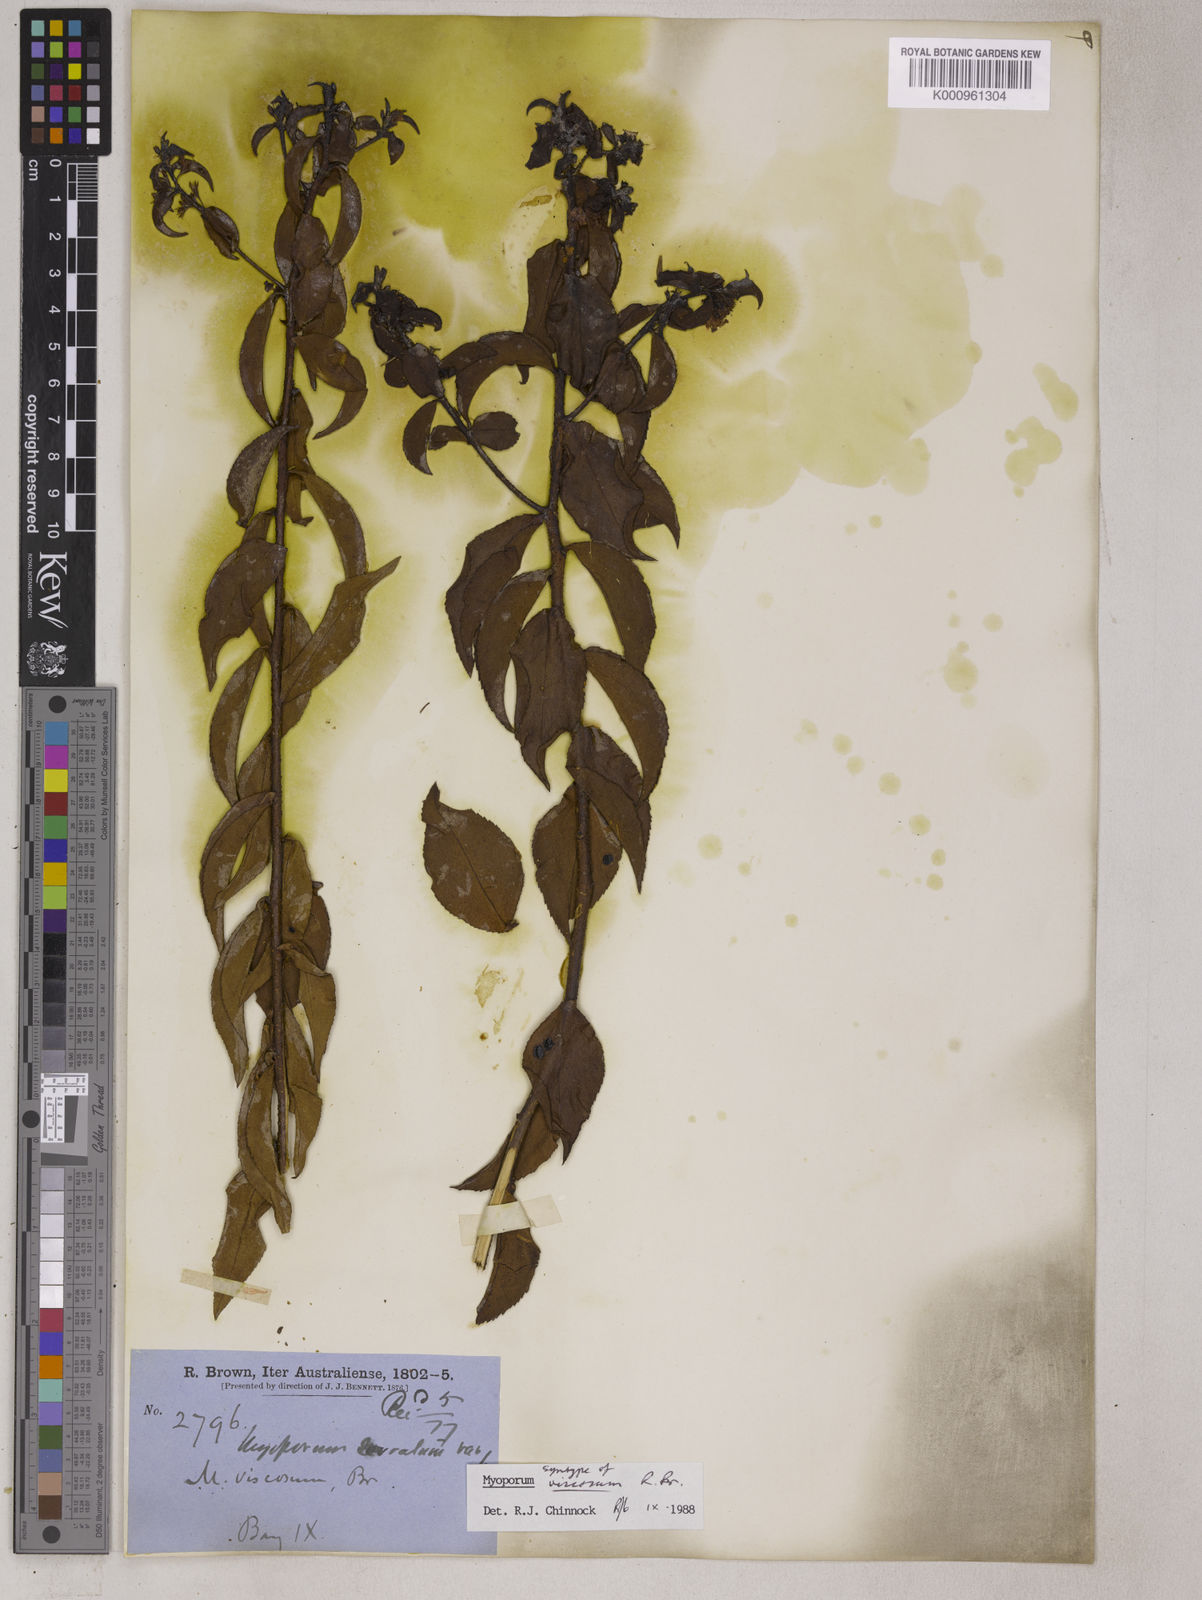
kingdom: Plantae
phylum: Tracheophyta
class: Magnoliopsida
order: Lamiales
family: Scrophulariaceae
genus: Myoporum
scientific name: Myoporum viscosum
